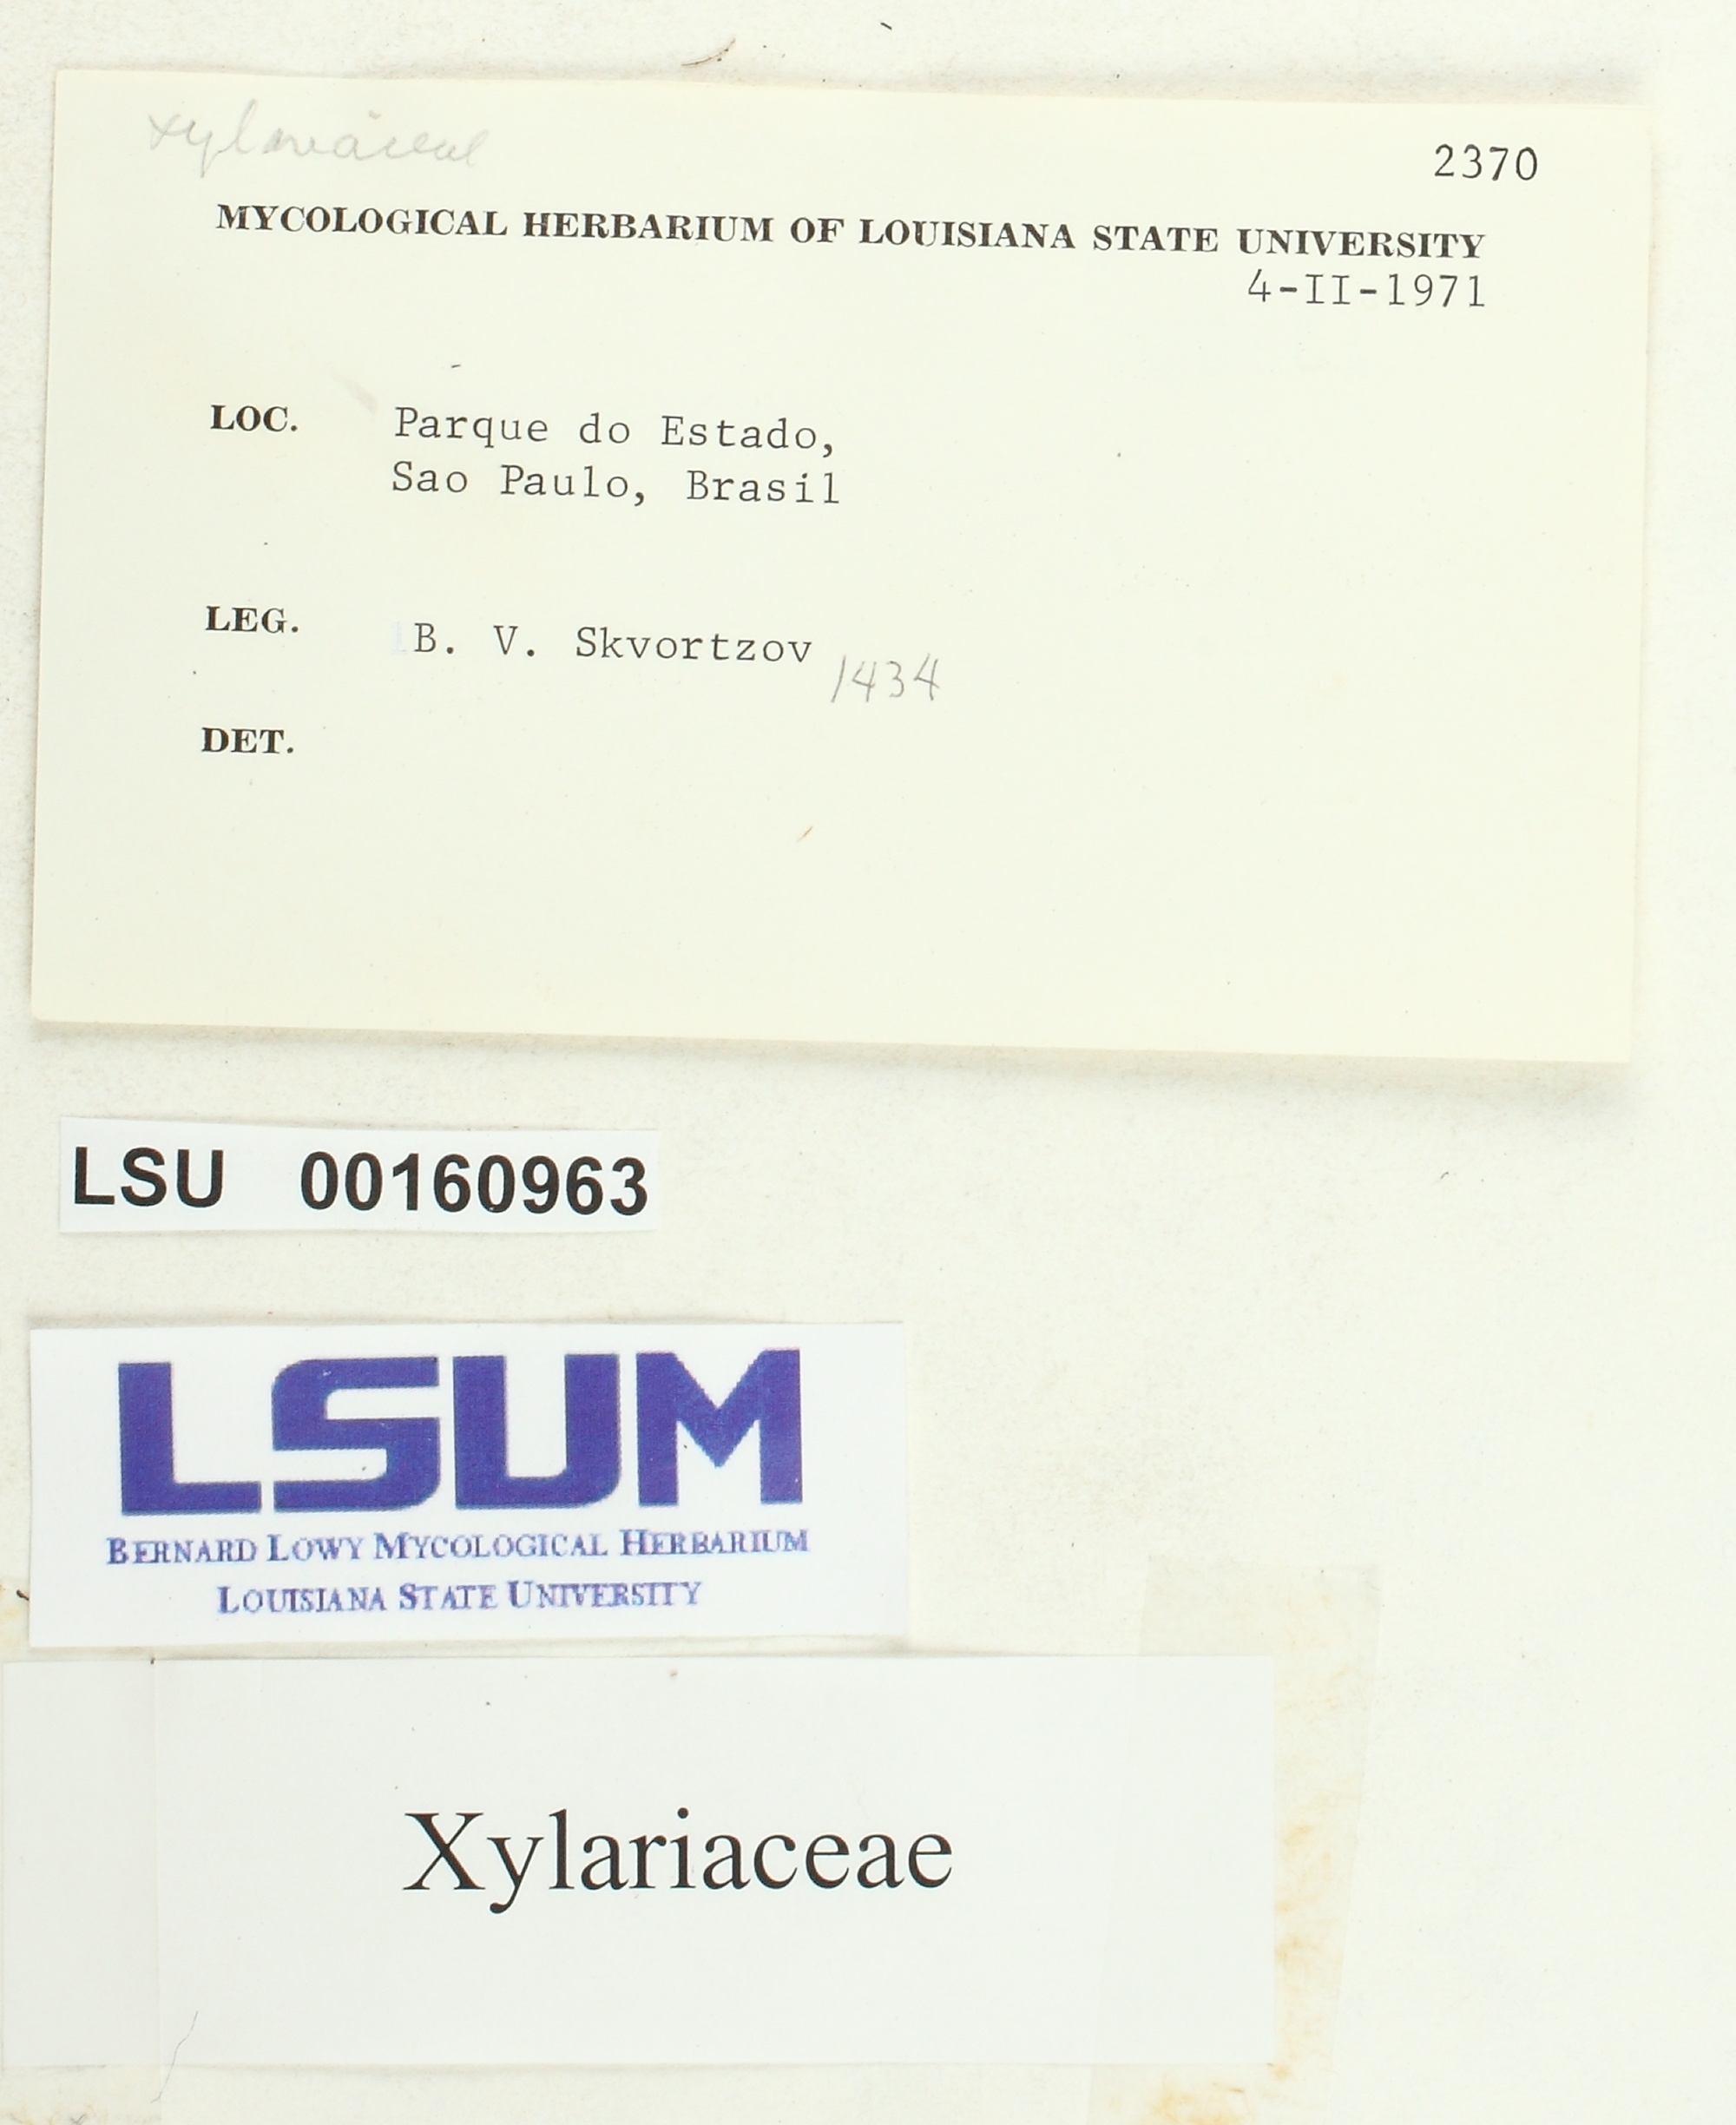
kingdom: Fungi
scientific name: Fungi
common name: Fungi
